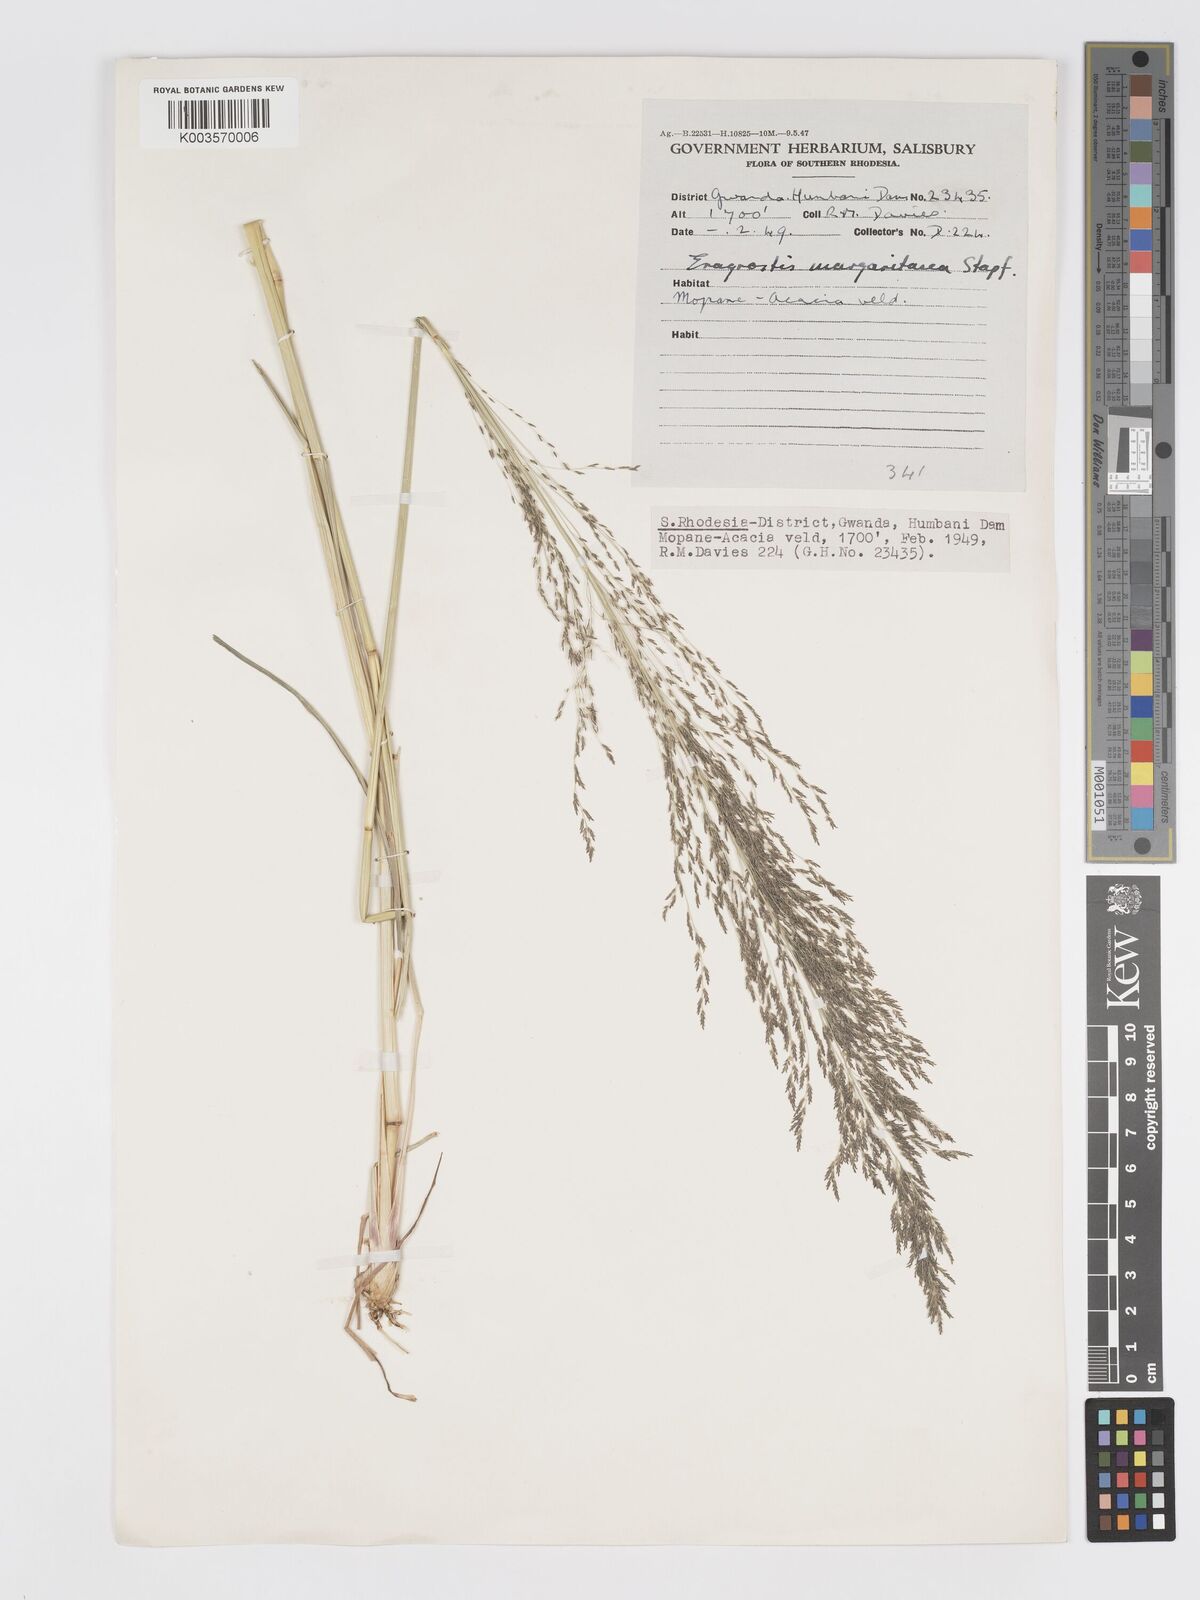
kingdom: Plantae
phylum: Tracheophyta
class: Liliopsida
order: Poales
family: Poaceae
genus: Eragrostis
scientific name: Eragrostis rotifer
